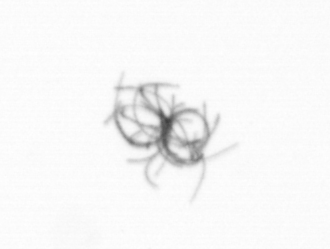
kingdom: Bacteria
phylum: Cyanobacteria
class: Cyanobacteriia
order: Cyanobacteriales
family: Microcoleaceae
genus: Trichodesmium
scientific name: Trichodesmium
